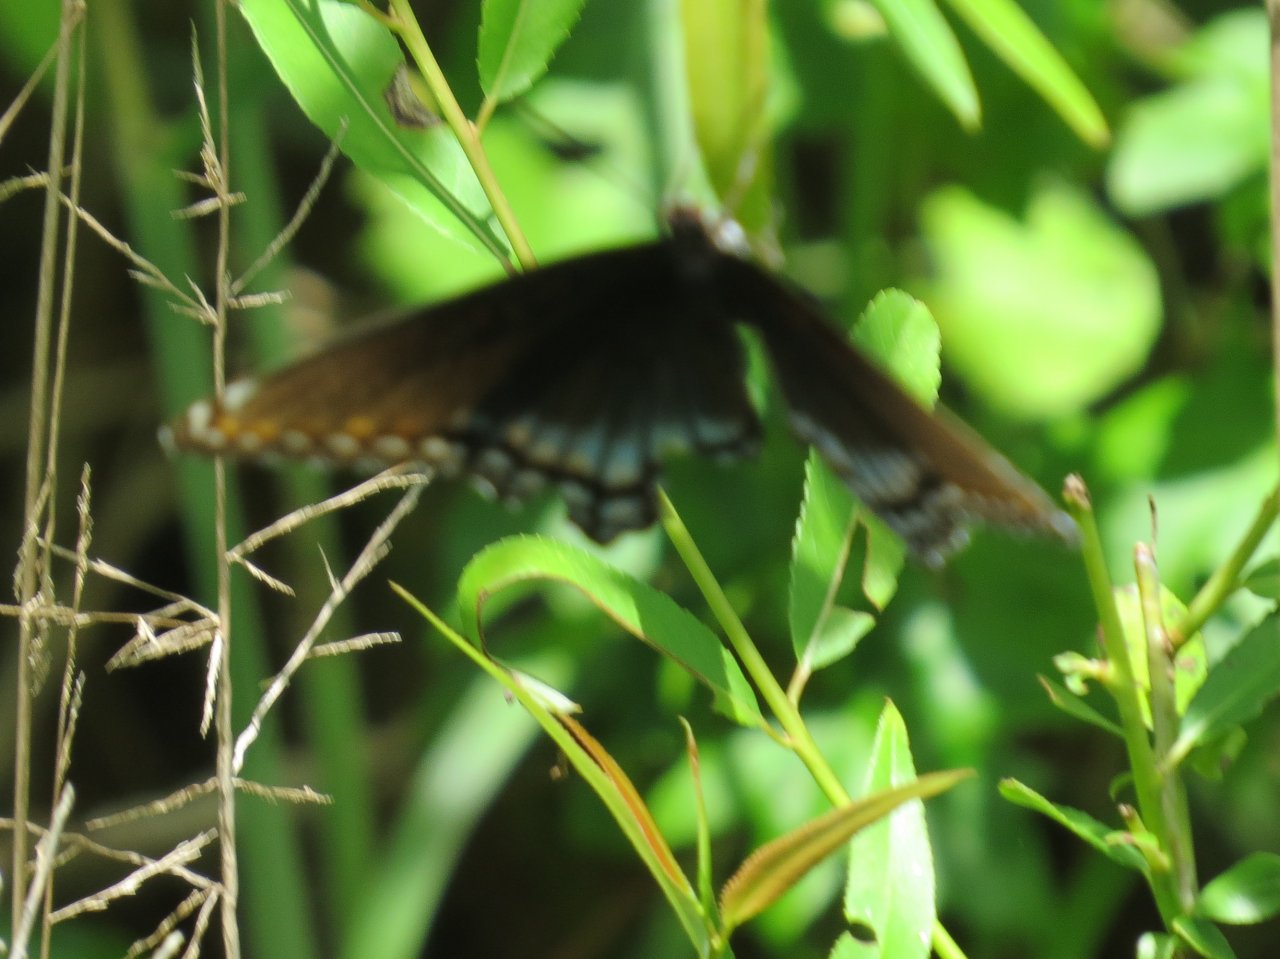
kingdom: Animalia
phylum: Arthropoda
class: Insecta
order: Lepidoptera
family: Nymphalidae
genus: Limenitis
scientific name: Limenitis astyanax
